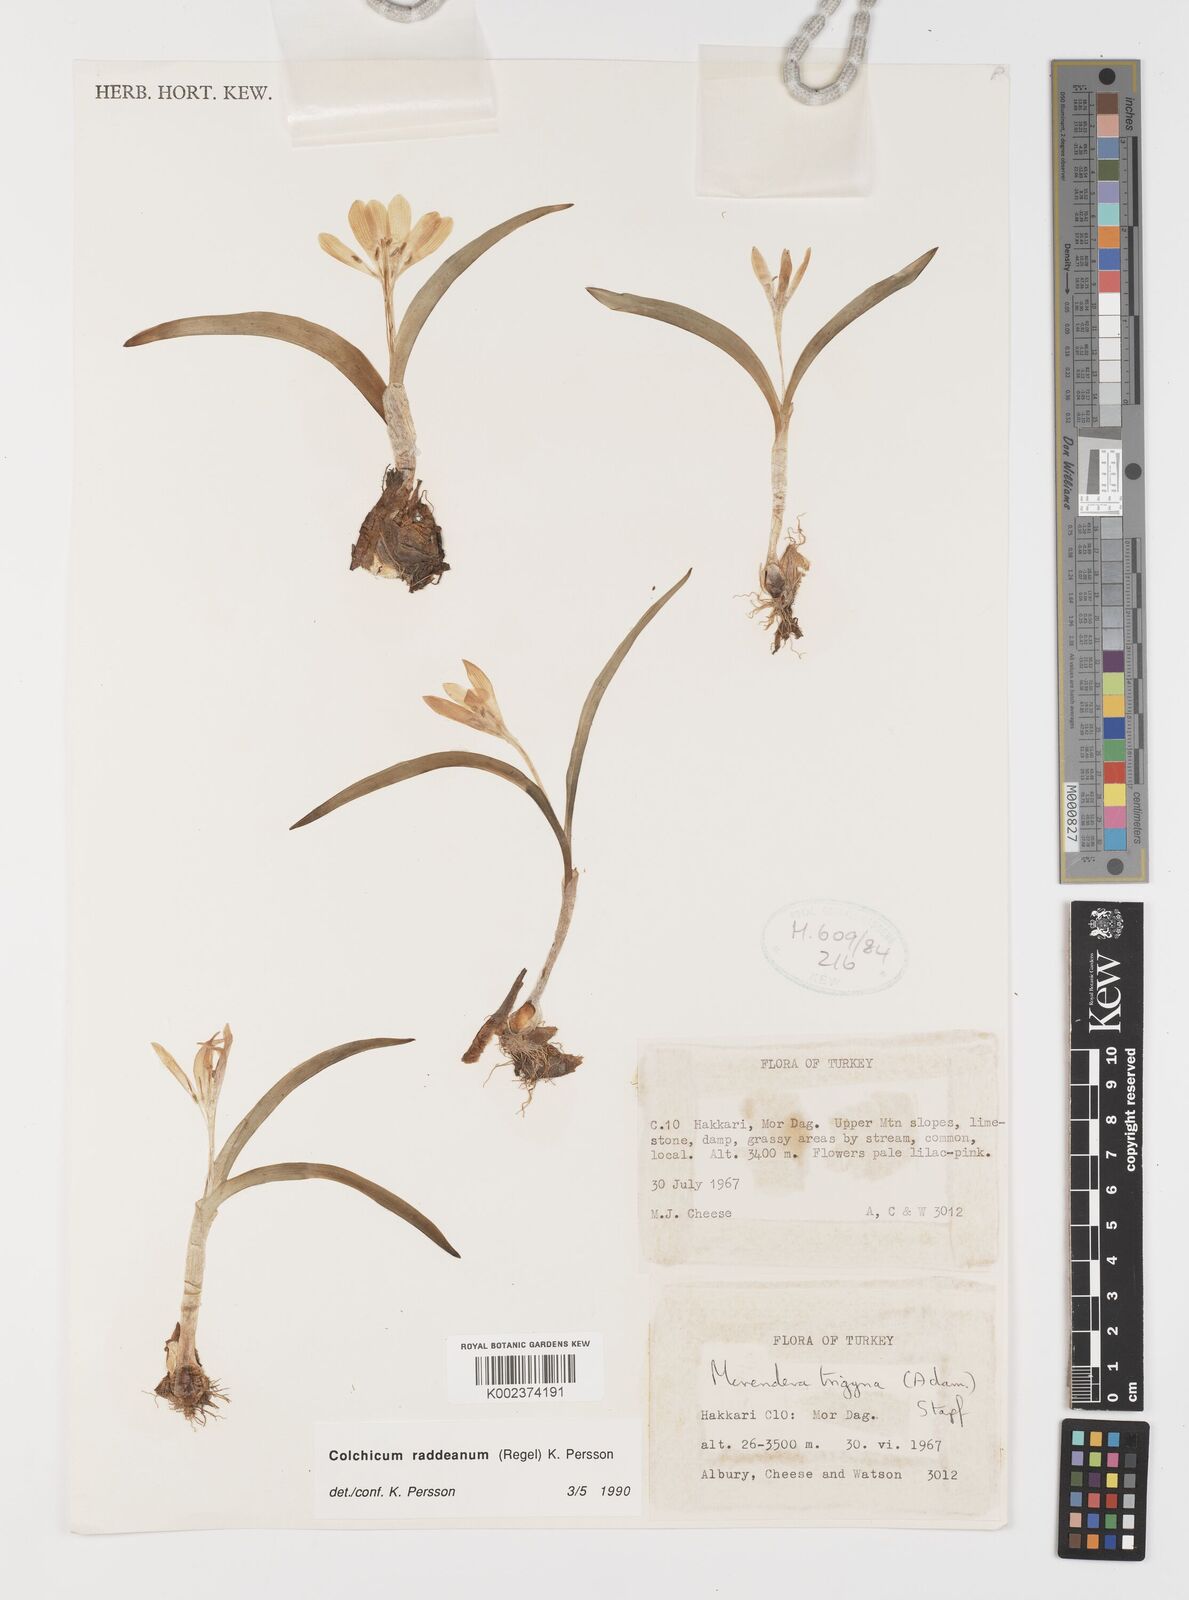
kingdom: Plantae
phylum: Tracheophyta
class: Liliopsida
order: Liliales
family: Colchicaceae
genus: Colchicum
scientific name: Colchicum raddeanum
